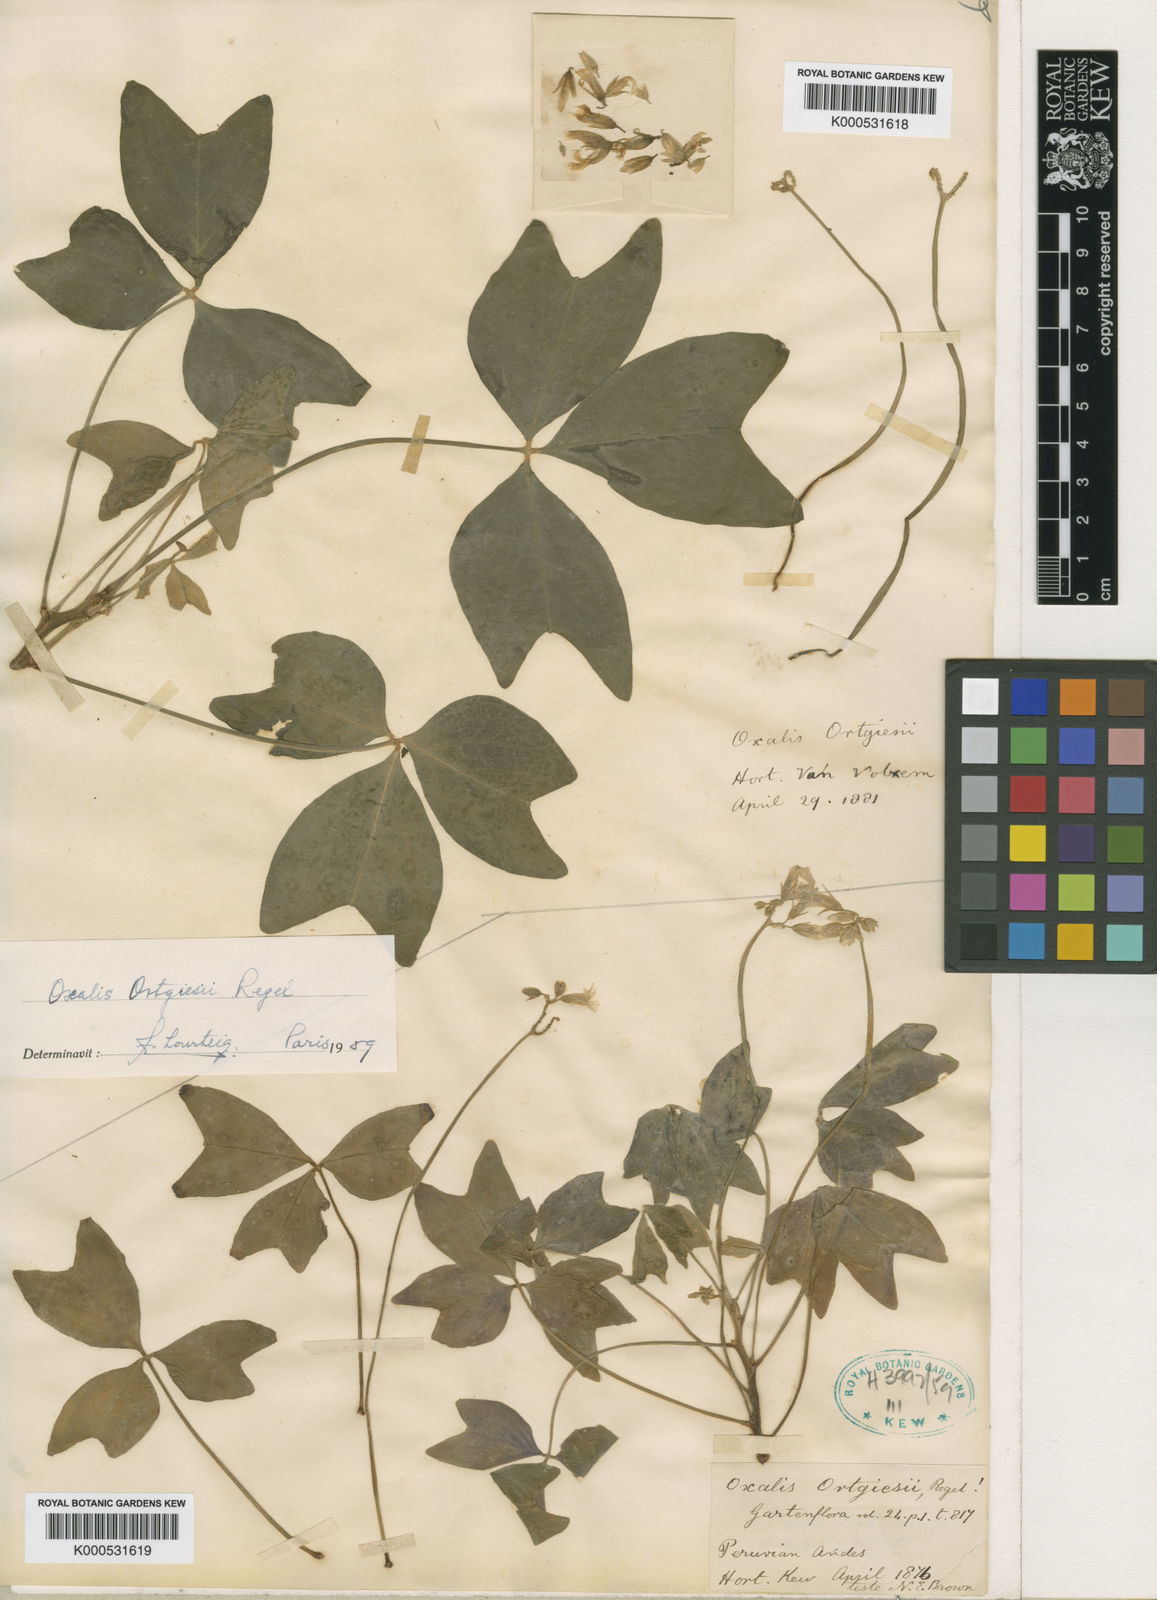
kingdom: Plantae
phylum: Tracheophyta
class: Magnoliopsida
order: Oxalidales
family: Oxalidaceae
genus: Oxalis
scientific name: Oxalis ortgiesii
